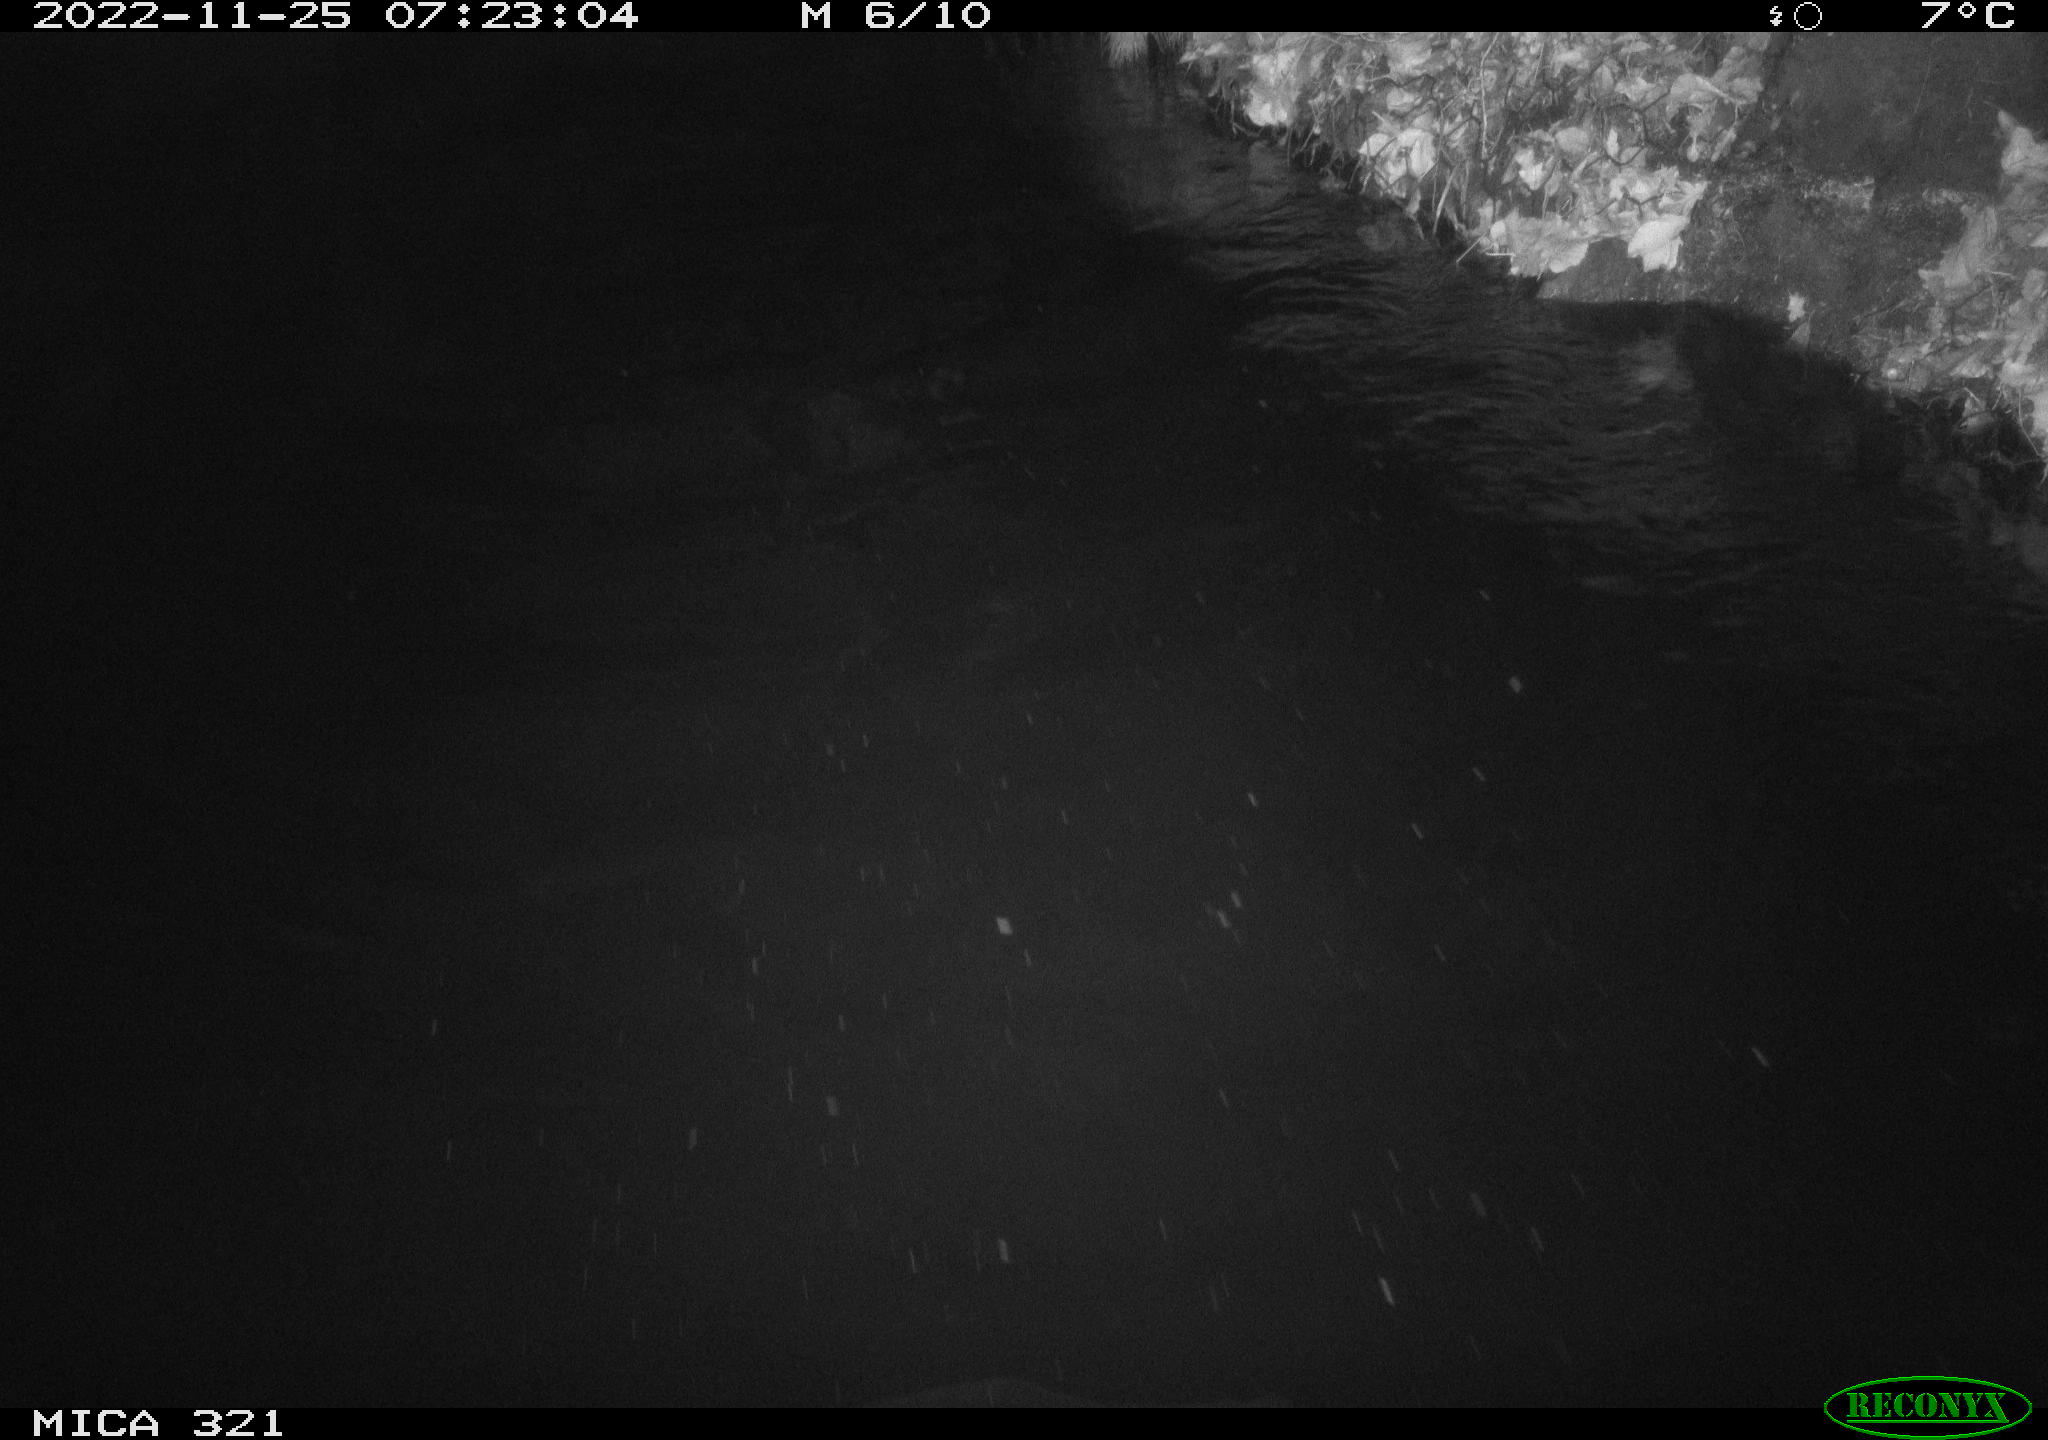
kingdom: Animalia
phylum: Chordata
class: Mammalia
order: Rodentia
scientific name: Rodentia
